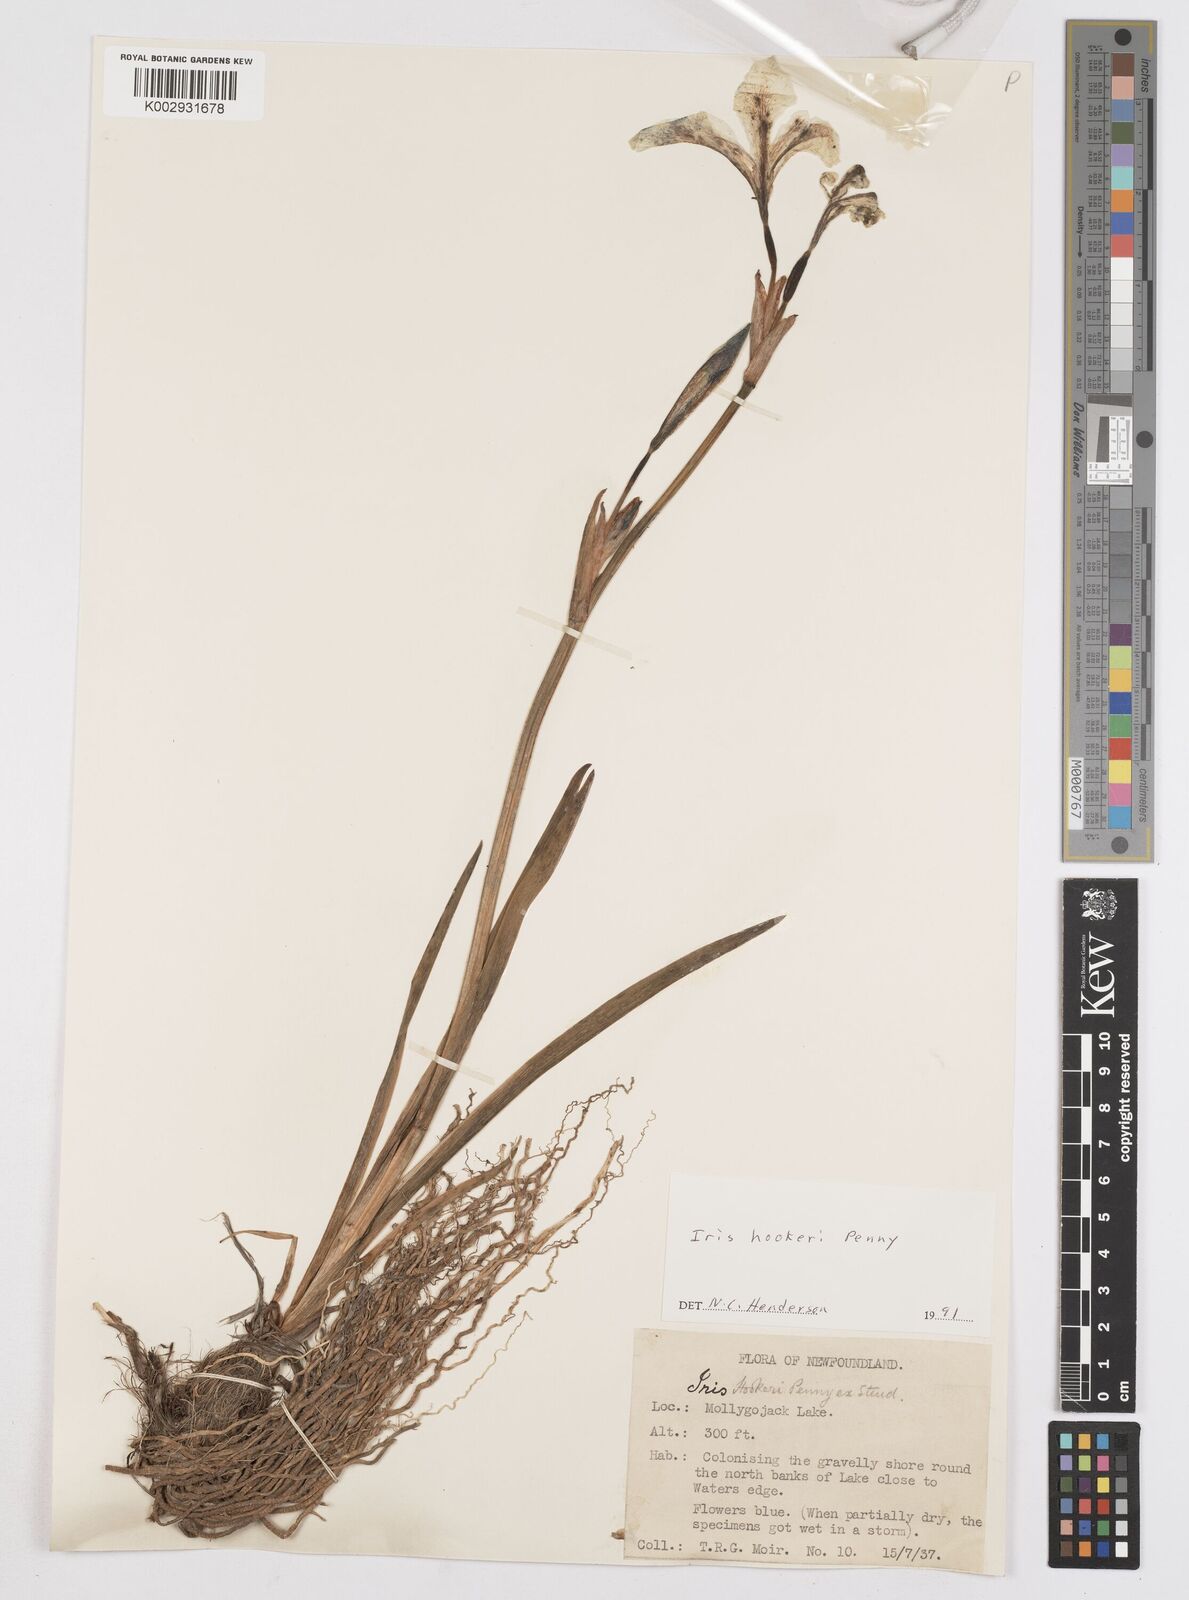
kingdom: Plantae
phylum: Tracheophyta
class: Liliopsida
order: Asparagales
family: Iridaceae
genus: Iris
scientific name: Iris setosa
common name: Arctic blue flag
